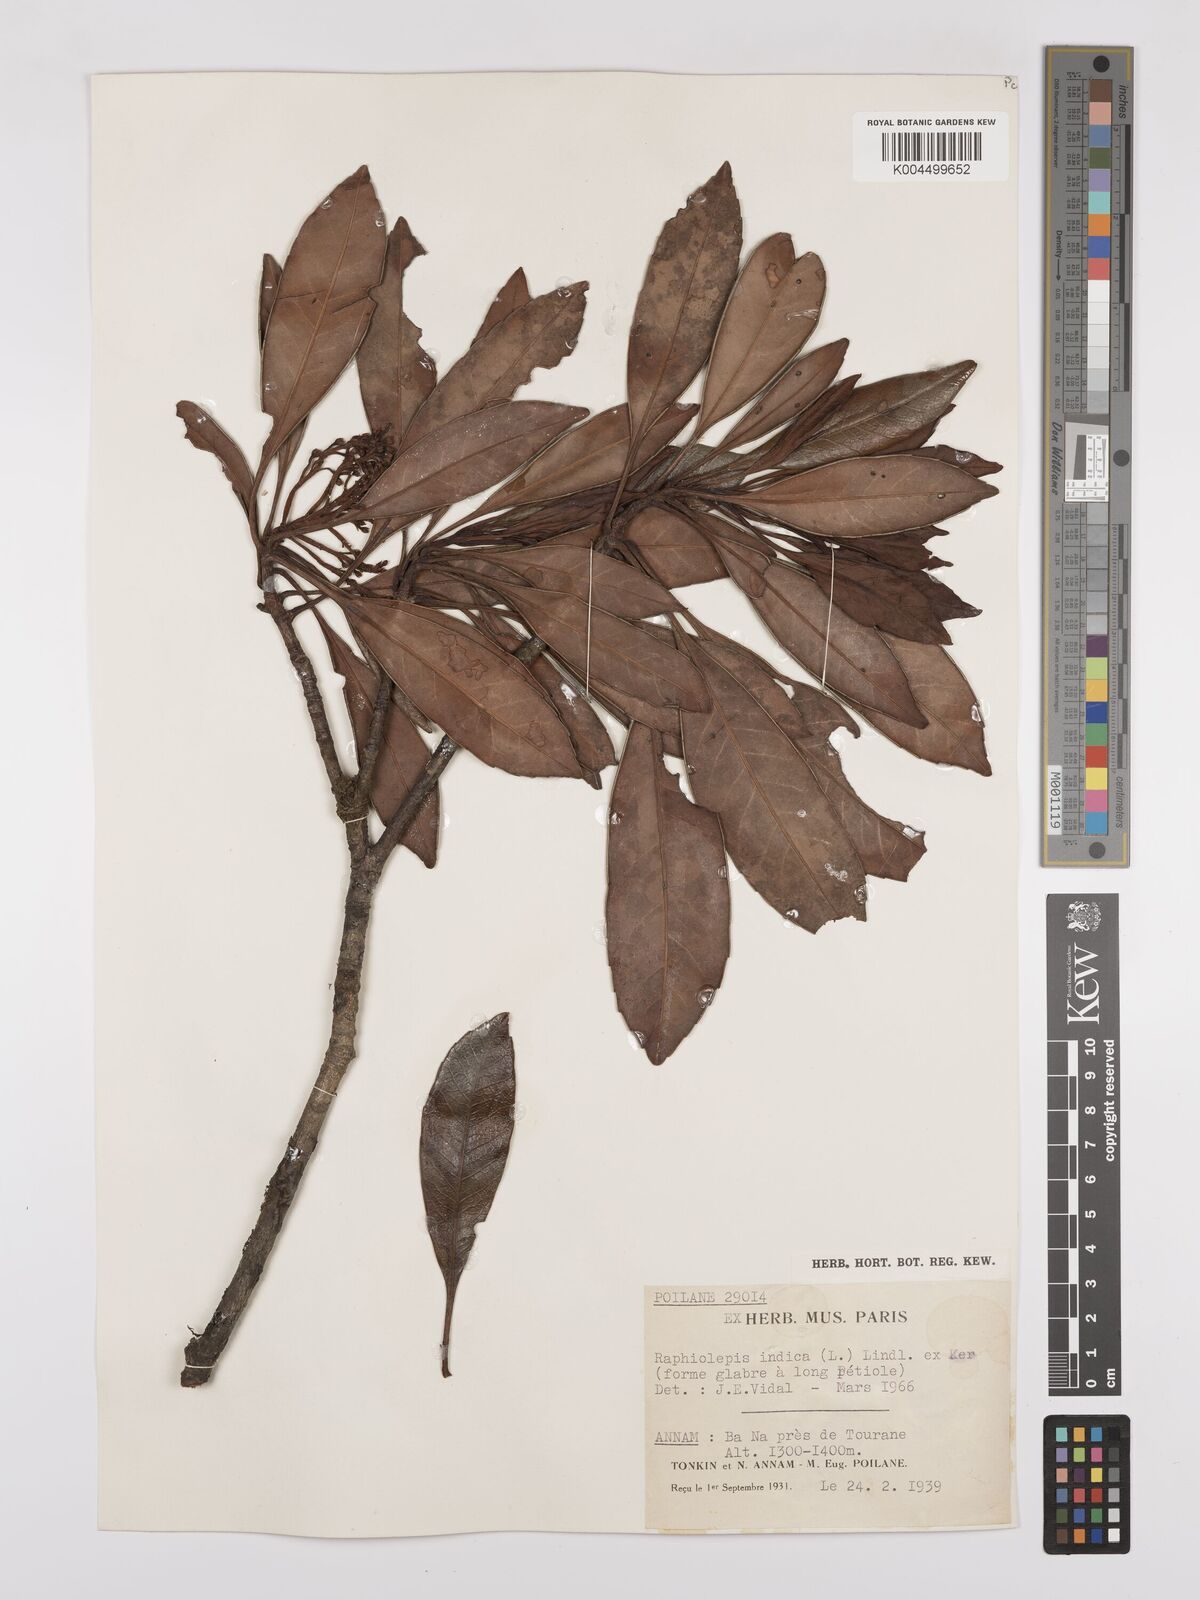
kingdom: Plantae
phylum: Tracheophyta
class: Magnoliopsida
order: Rosales
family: Rosaceae
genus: Rhaphiolepis
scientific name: Rhaphiolepis indica
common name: India-hawthorn
